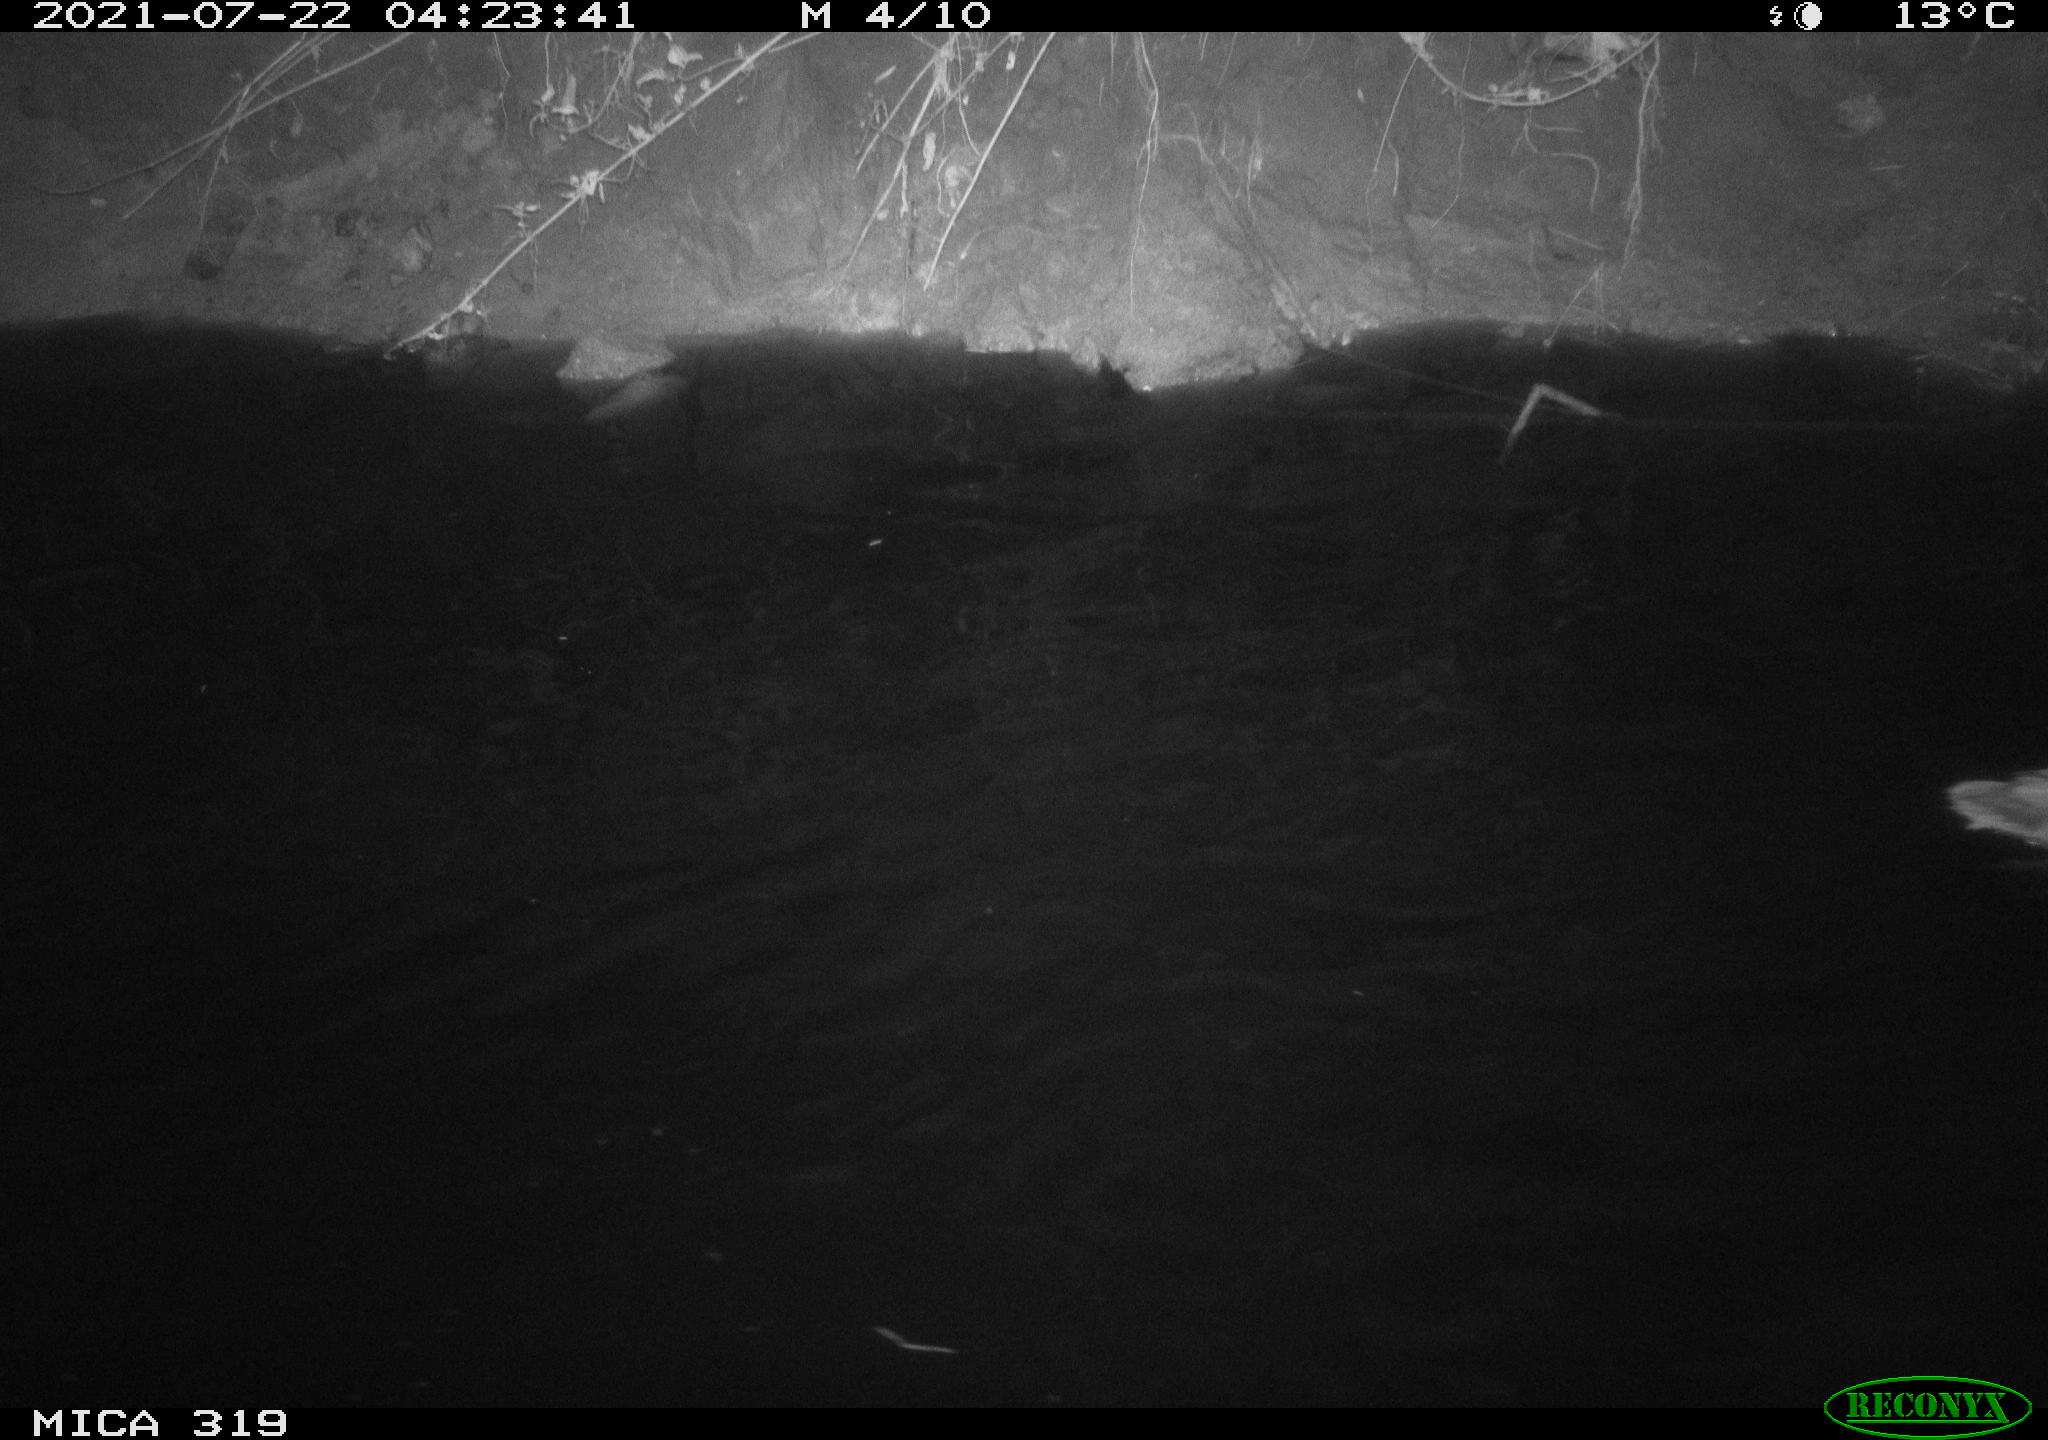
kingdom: Animalia
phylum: Chordata
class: Aves
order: Anseriformes
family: Anatidae
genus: Anas
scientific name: Anas platyrhynchos
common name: Mallard
